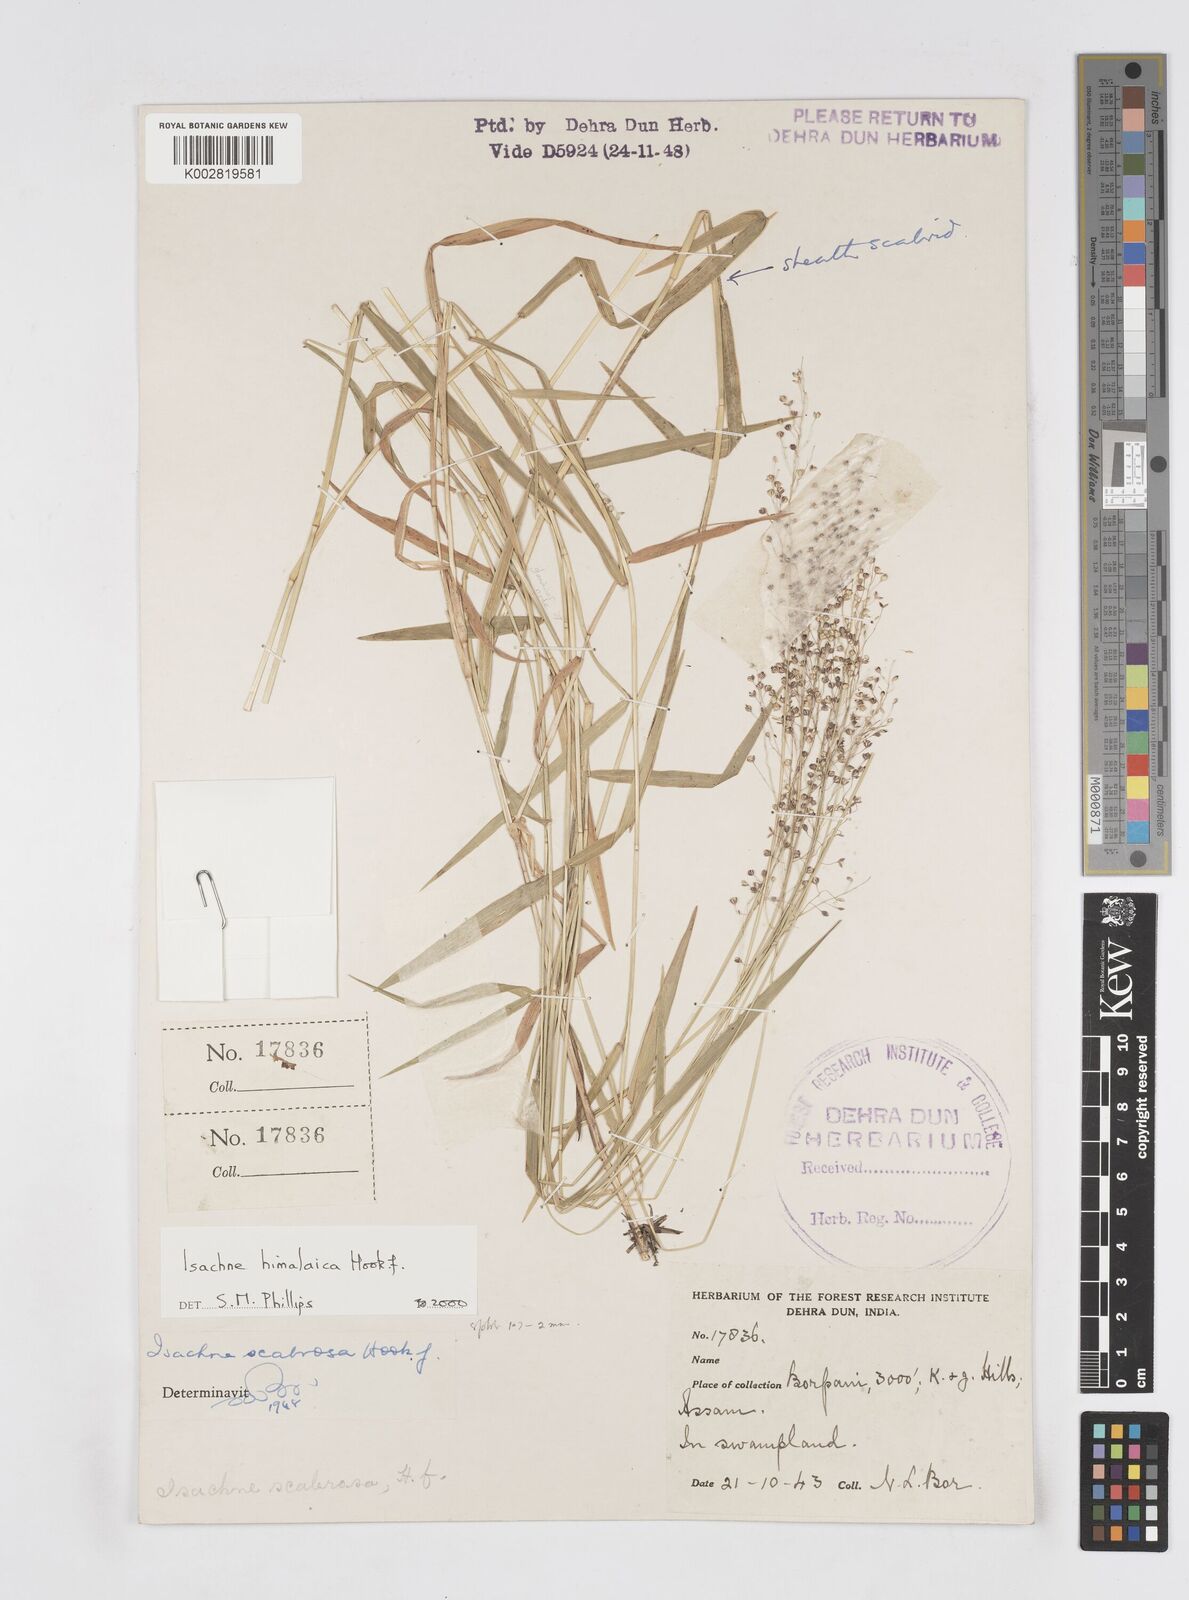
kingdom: Plantae
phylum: Tracheophyta
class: Liliopsida
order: Poales
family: Poaceae
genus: Isachne
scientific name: Isachne himalaica
